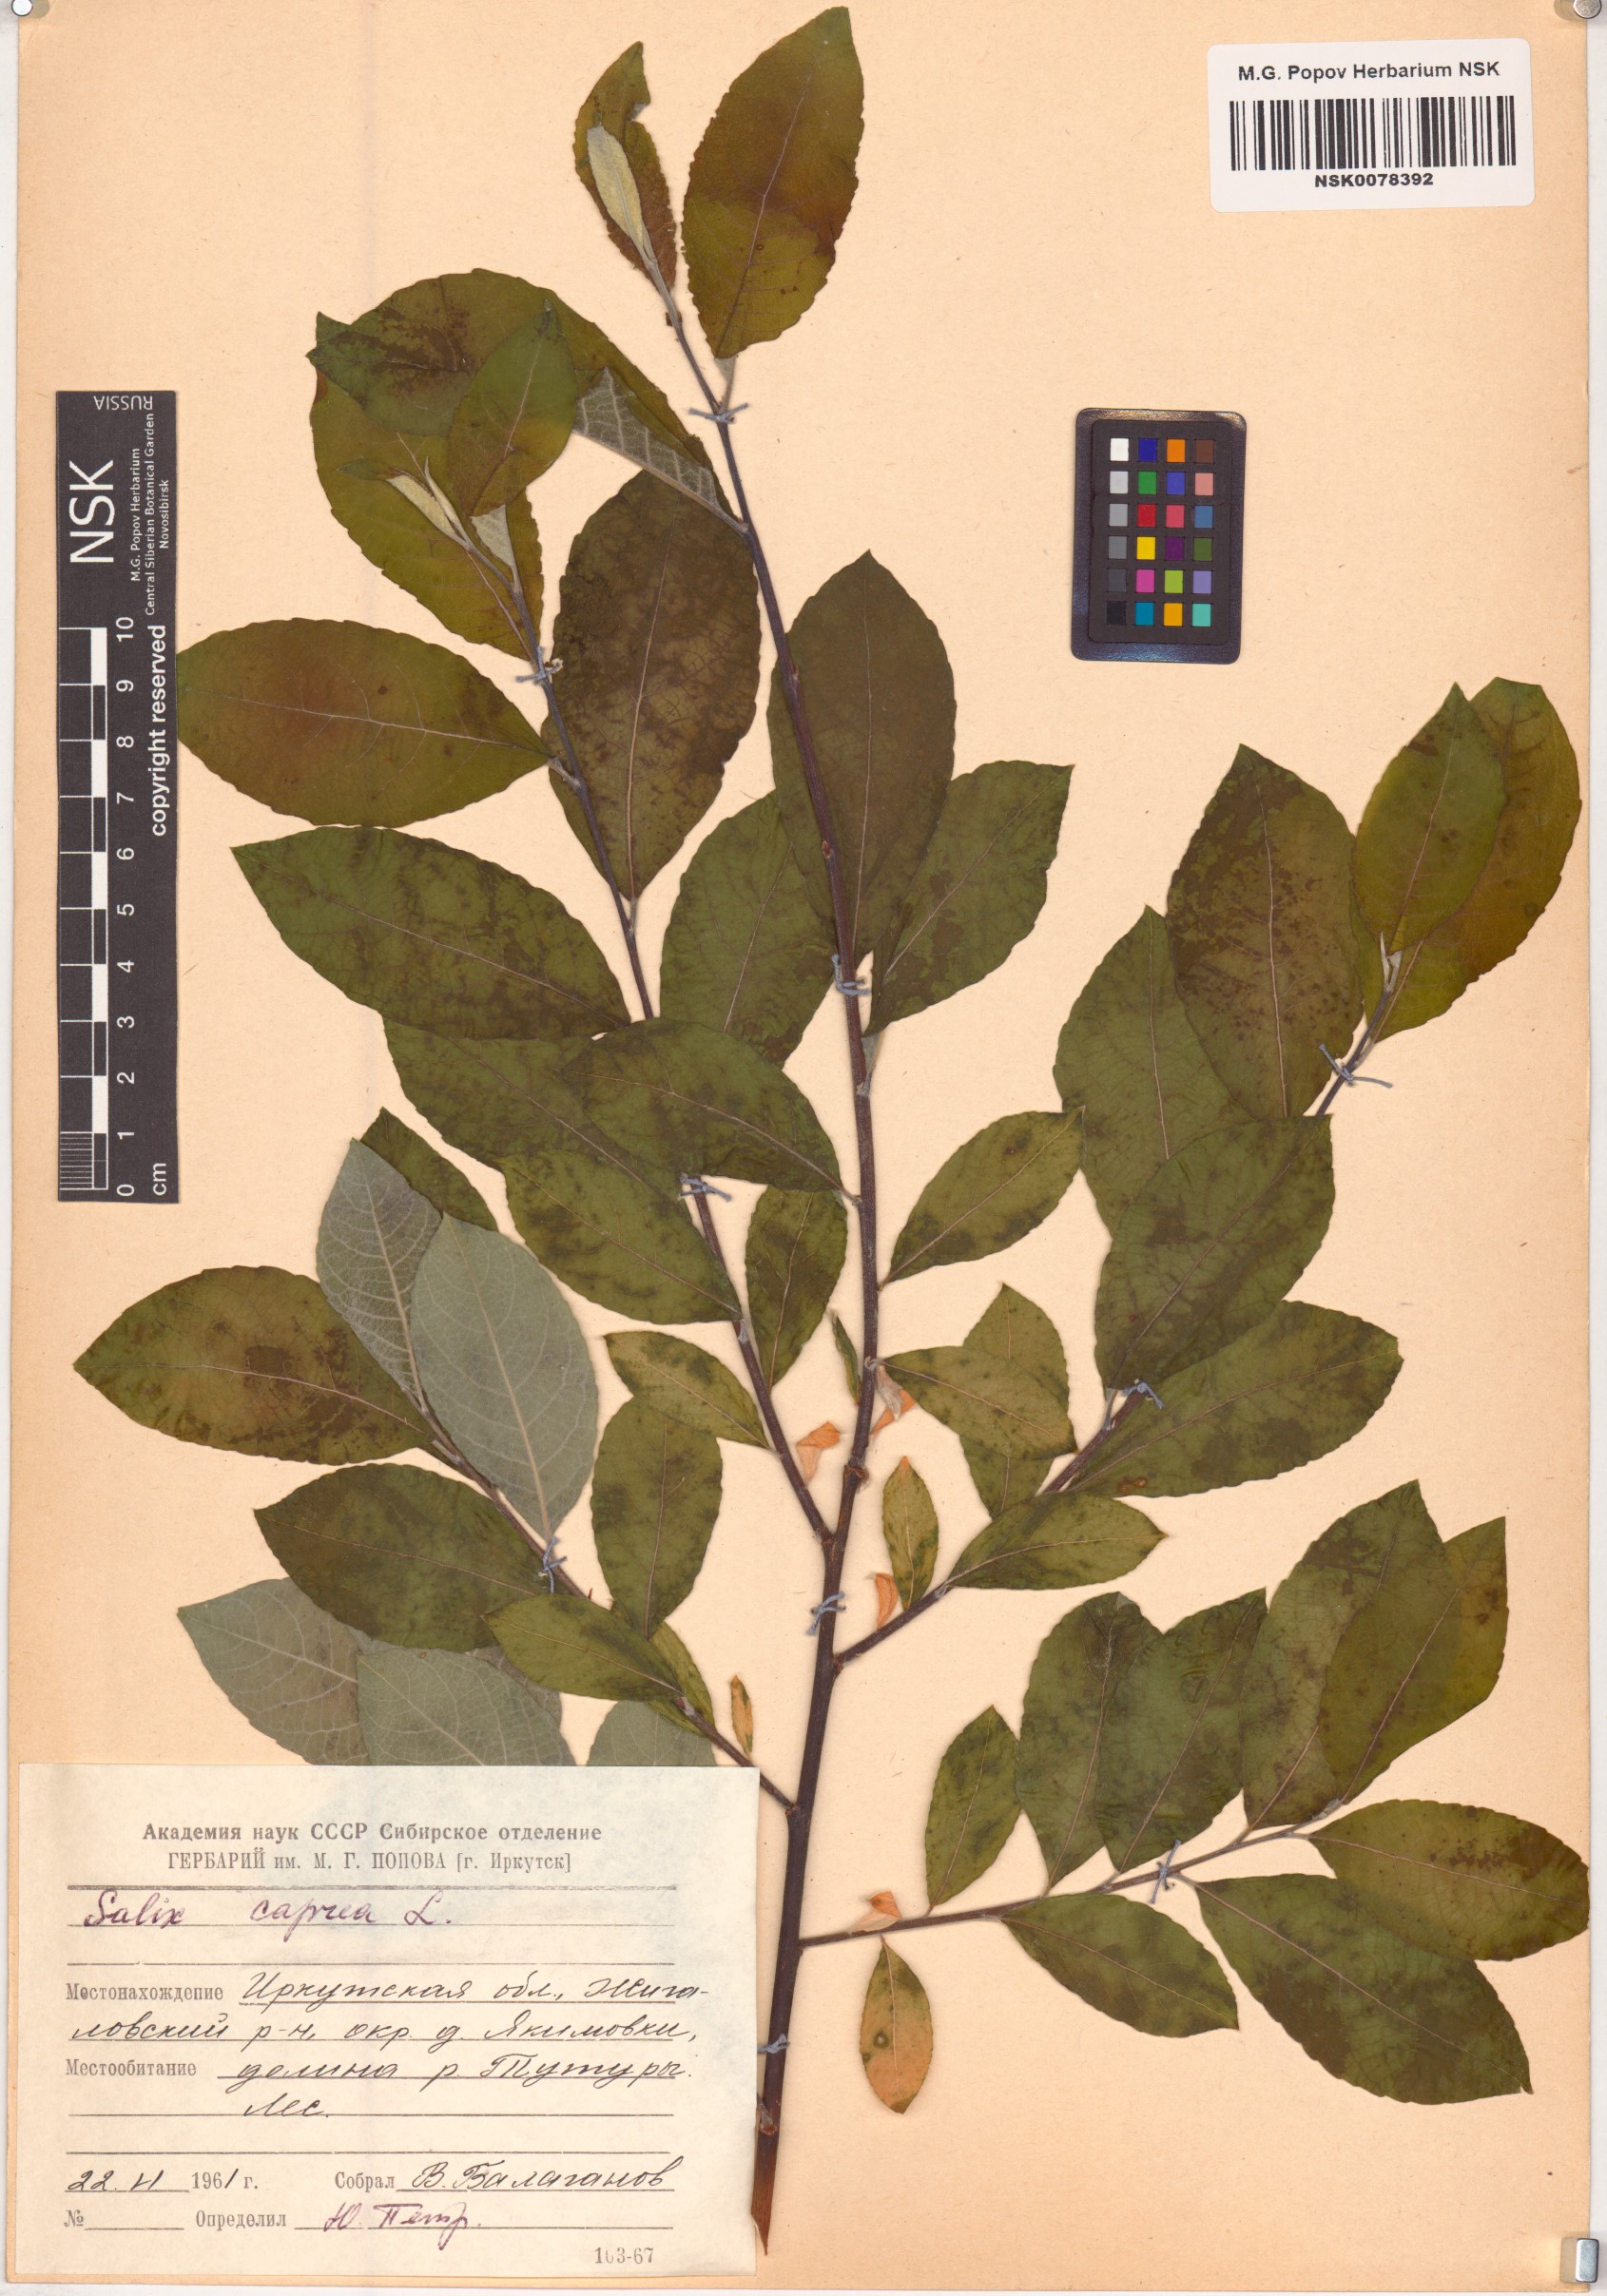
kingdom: Plantae
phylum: Tracheophyta
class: Magnoliopsida
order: Malpighiales
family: Salicaceae
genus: Salix
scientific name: Salix caprea
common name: Goat willow
